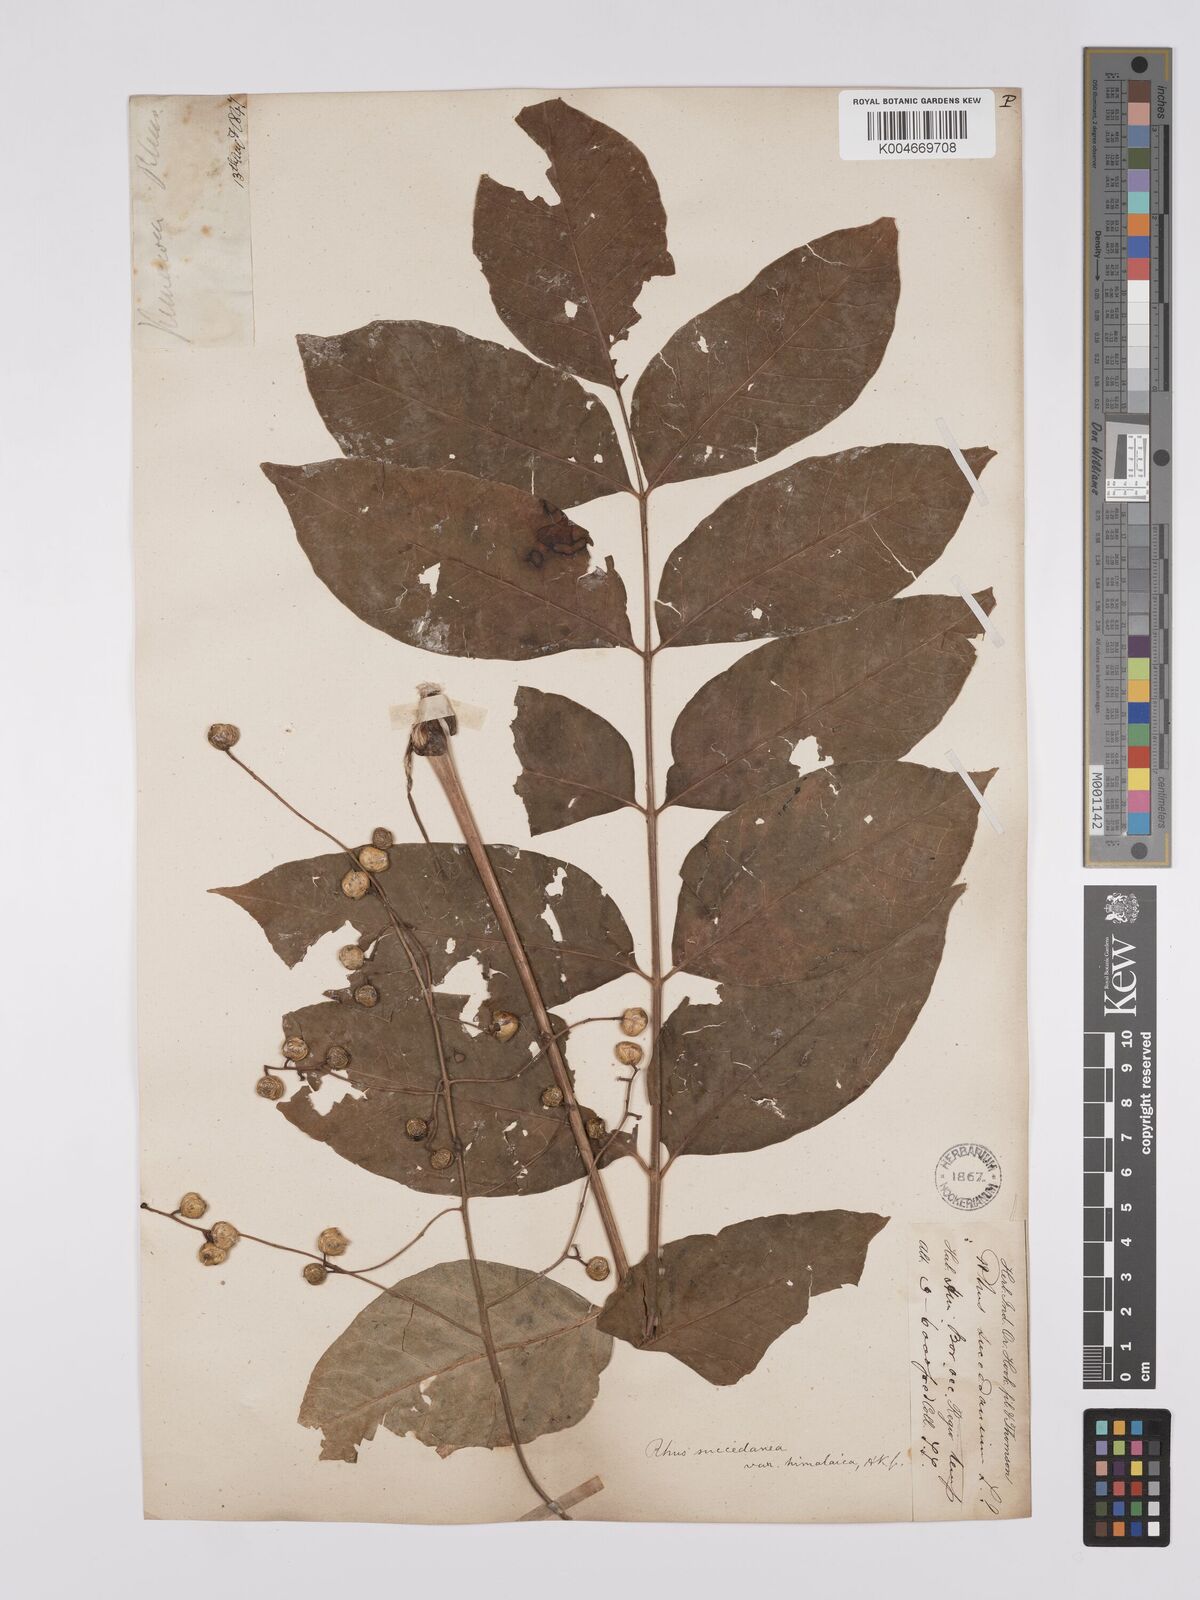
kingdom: Plantae
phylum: Tracheophyta
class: Magnoliopsida
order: Sapindales
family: Anacardiaceae
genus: Toxicodendron
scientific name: Toxicodendron succedaneum
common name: Wax tree
